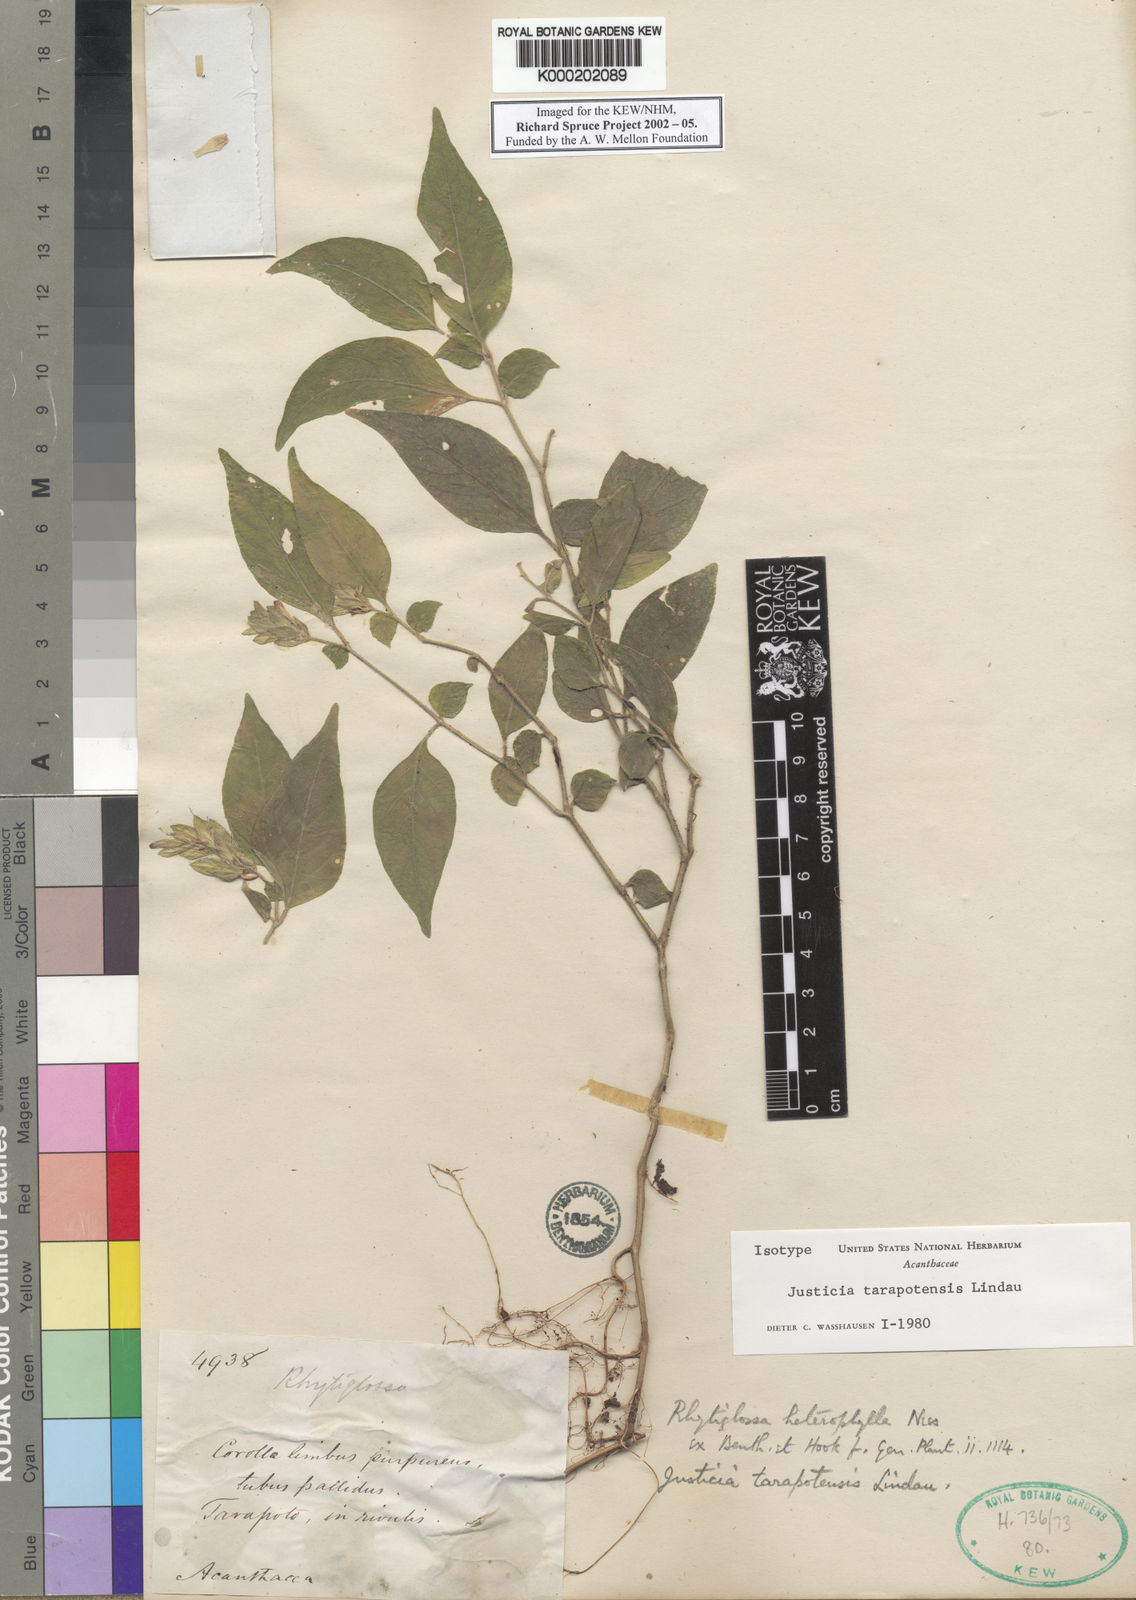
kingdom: Plantae
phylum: Tracheophyta
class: Magnoliopsida
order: Lamiales
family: Acanthaceae
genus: Justicia
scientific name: Justicia tarapotensis
